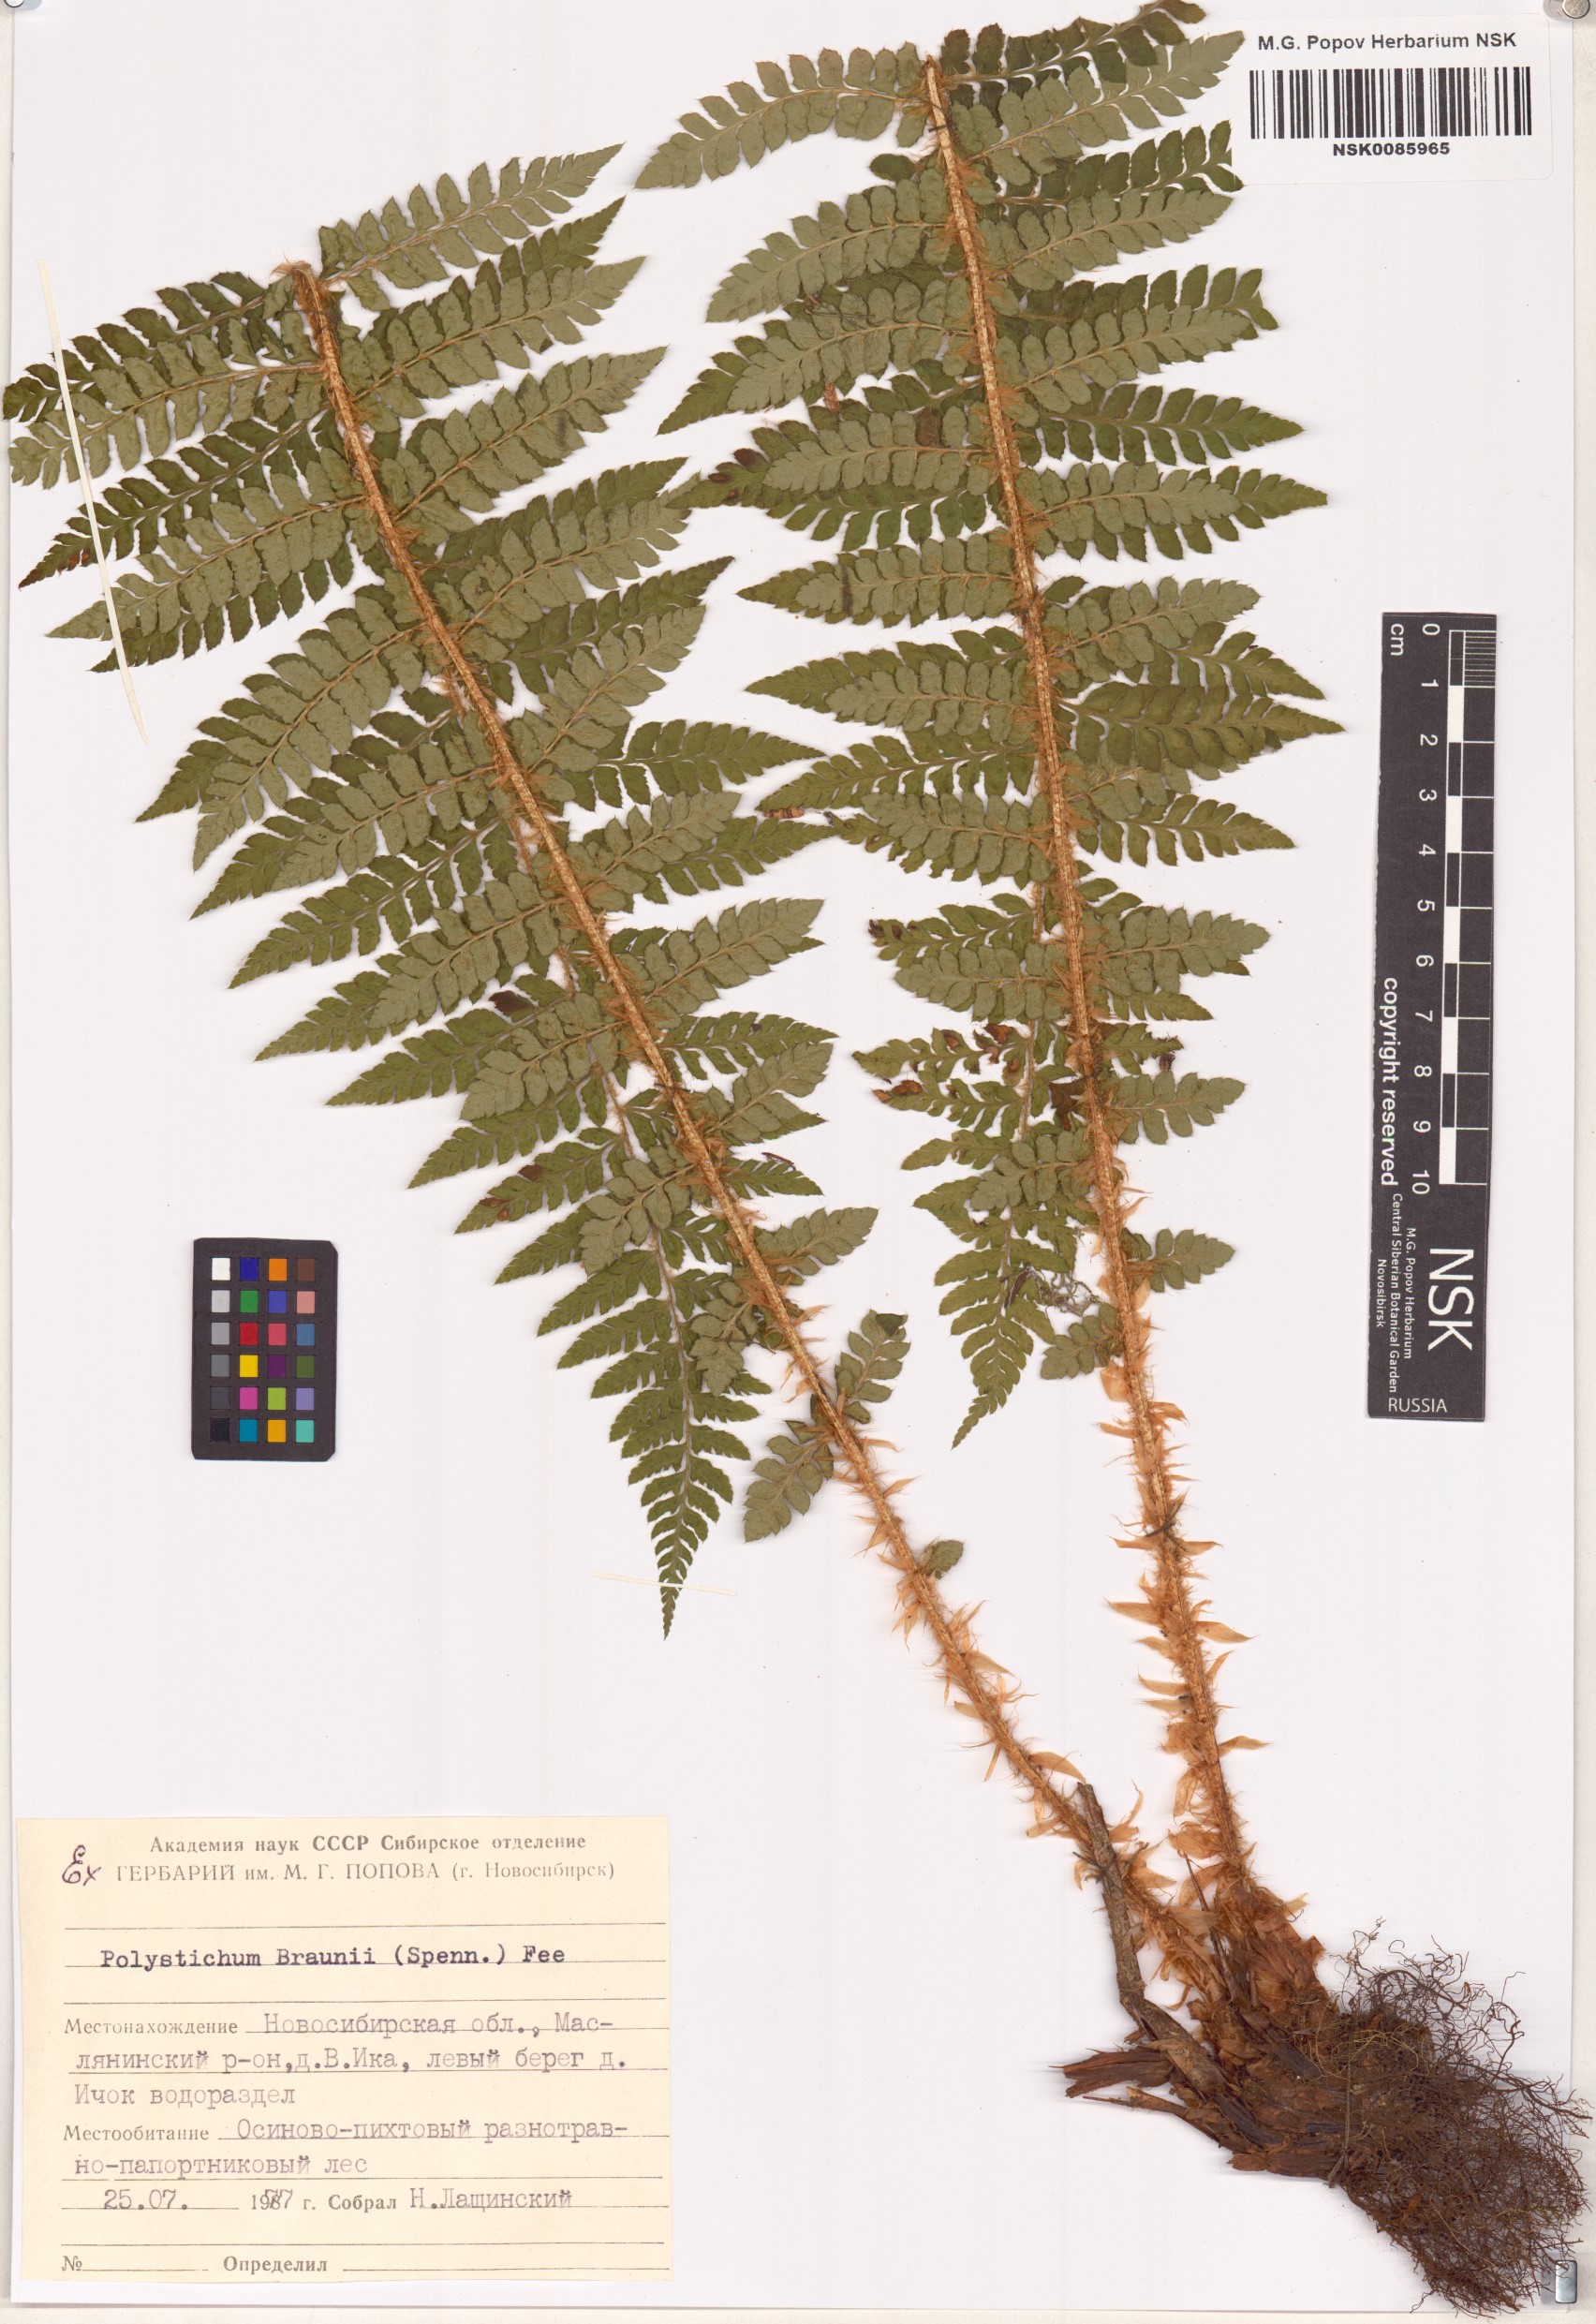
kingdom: Plantae
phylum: Tracheophyta
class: Polypodiopsida
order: Polypodiales
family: Dryopteridaceae
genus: Polystichum
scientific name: Polystichum braunii
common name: Braun's holly fern
